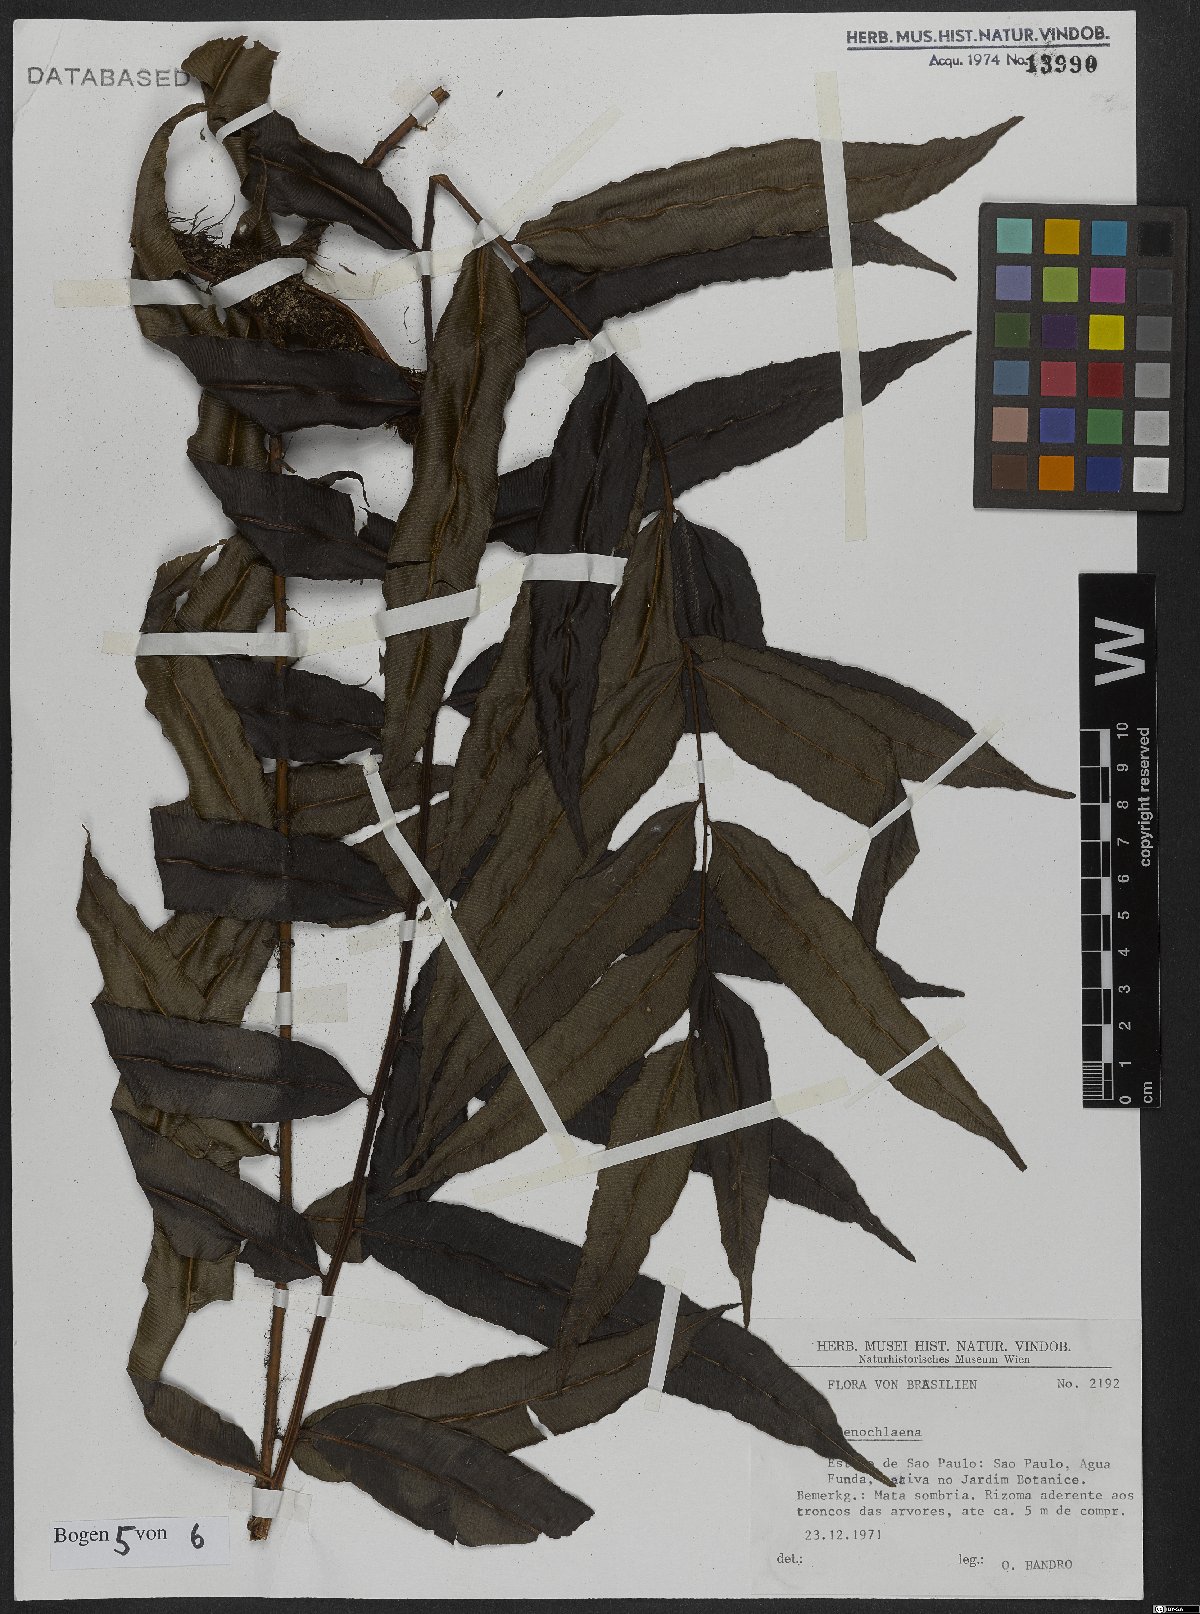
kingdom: Plantae
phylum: Tracheophyta
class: Polypodiopsida
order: Polypodiales
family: Blechnaceae
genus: Stenochlaena
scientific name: Stenochlaena
